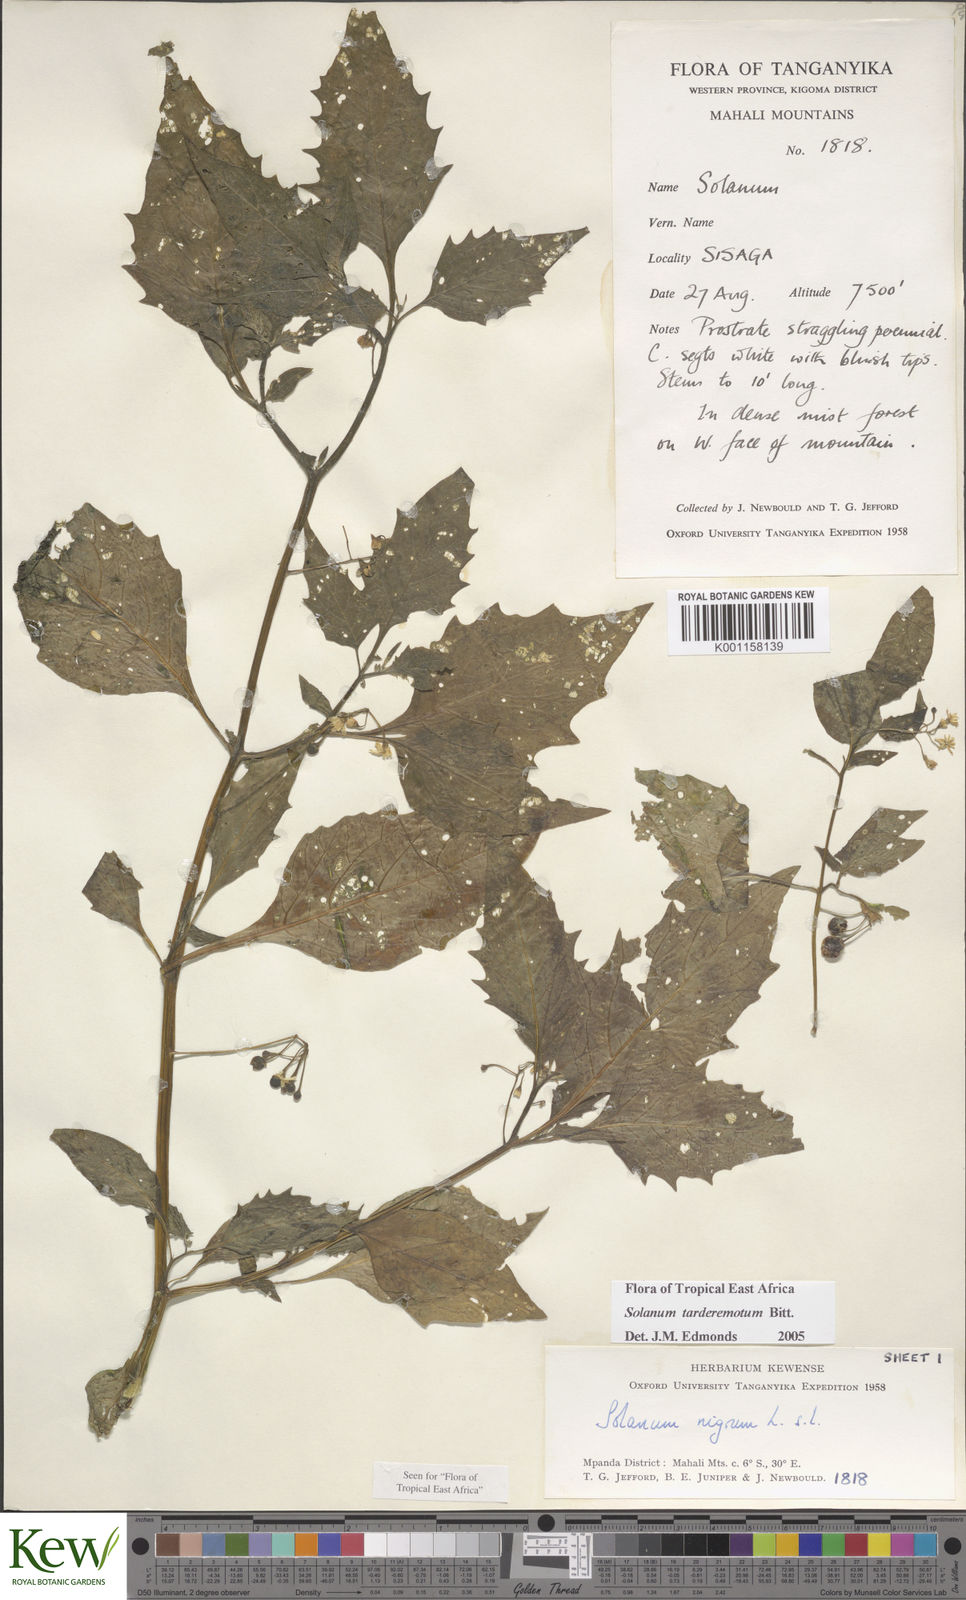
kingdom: Plantae
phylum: Tracheophyta
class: Magnoliopsida
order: Solanales
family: Solanaceae
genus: Solanum
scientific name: Solanum tarderemotum
